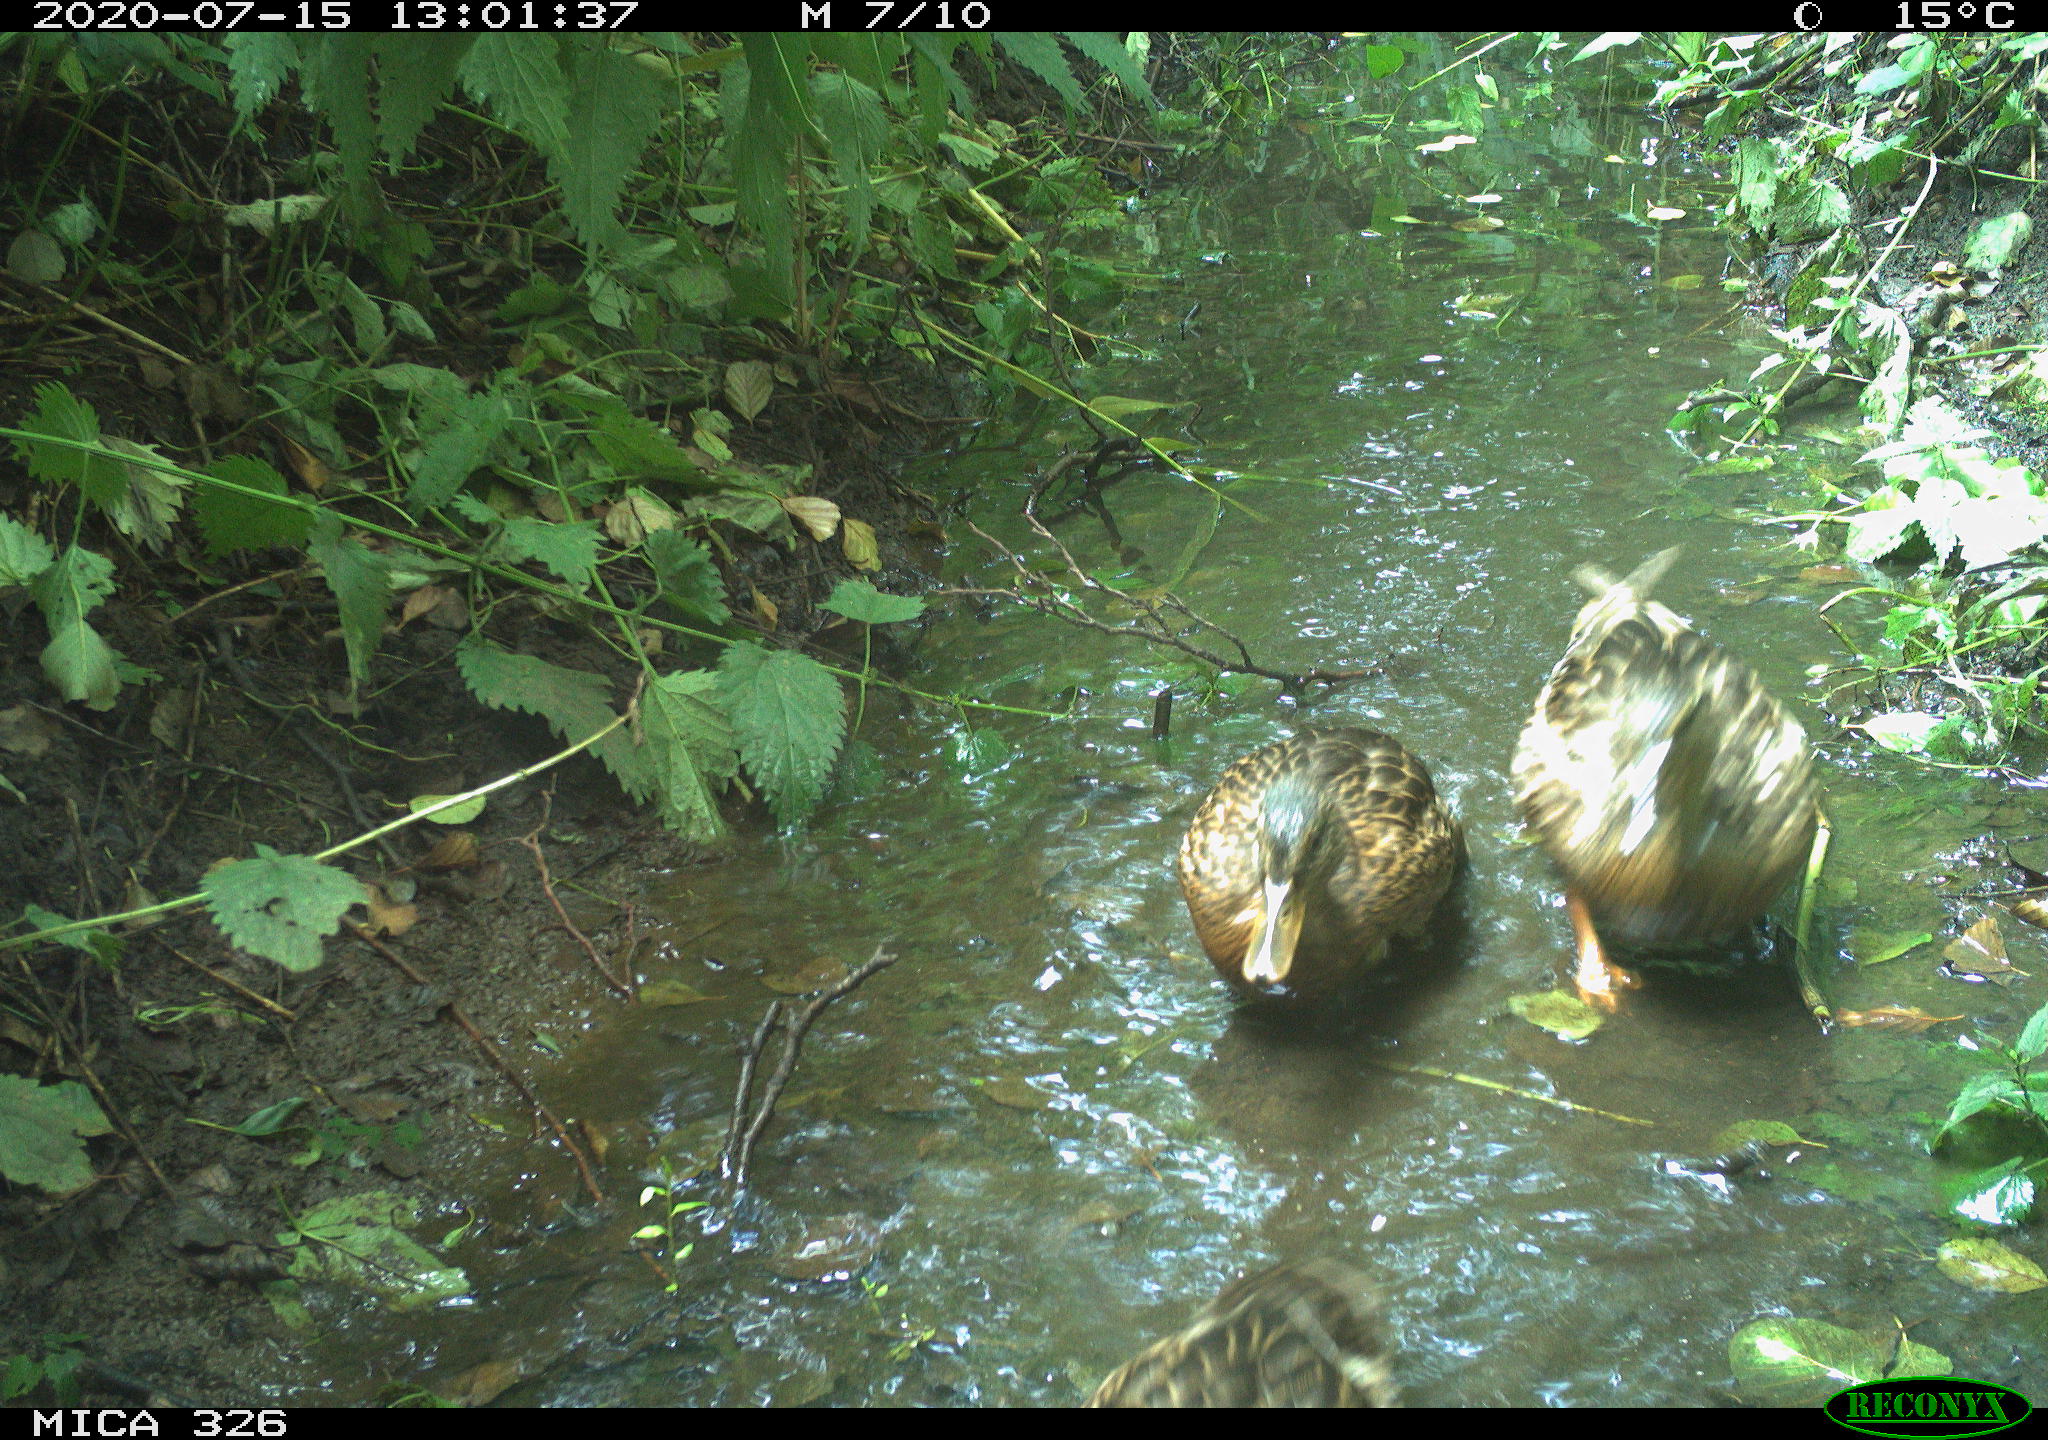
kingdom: Animalia
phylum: Chordata
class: Aves
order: Anseriformes
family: Anatidae
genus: Anas
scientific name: Anas platyrhynchos
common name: Mallard
